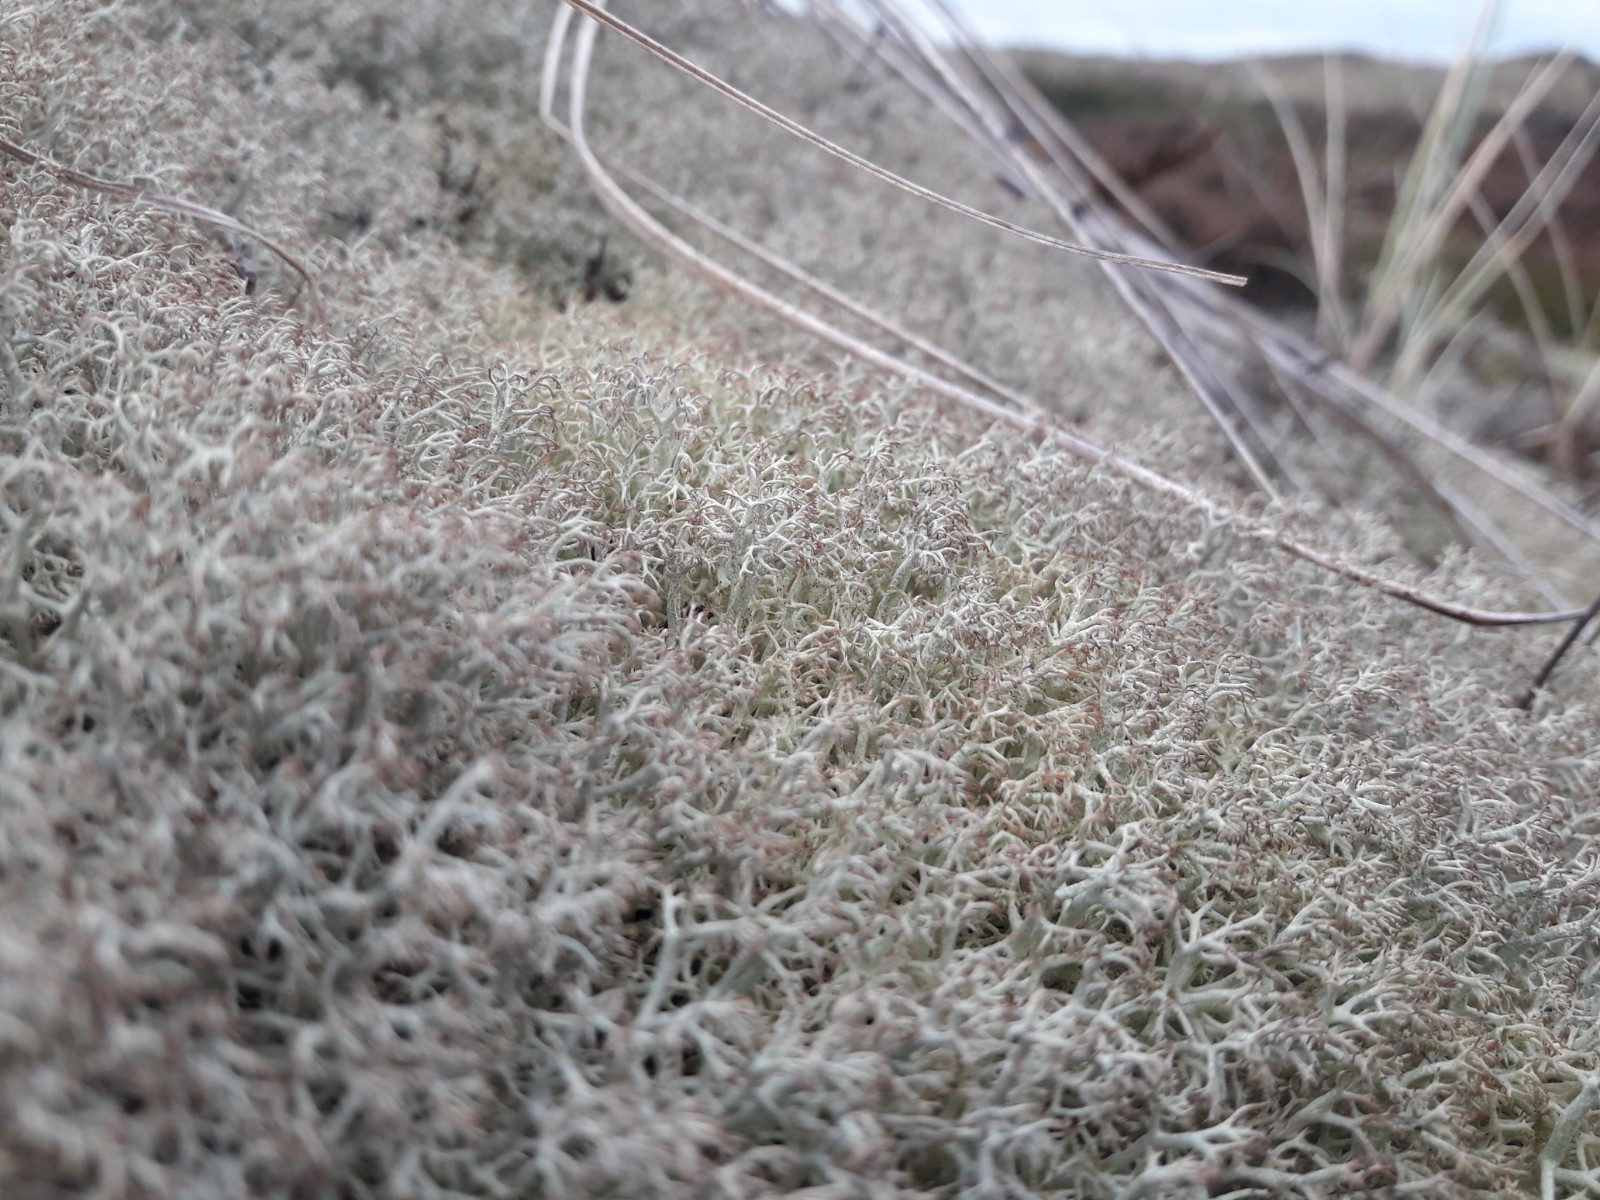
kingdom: Fungi
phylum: Ascomycota
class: Lecanoromycetes
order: Lecanorales
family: Cladoniaceae
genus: Cladonia
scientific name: Cladonia ciliata
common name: spinkel rensdyrlav
